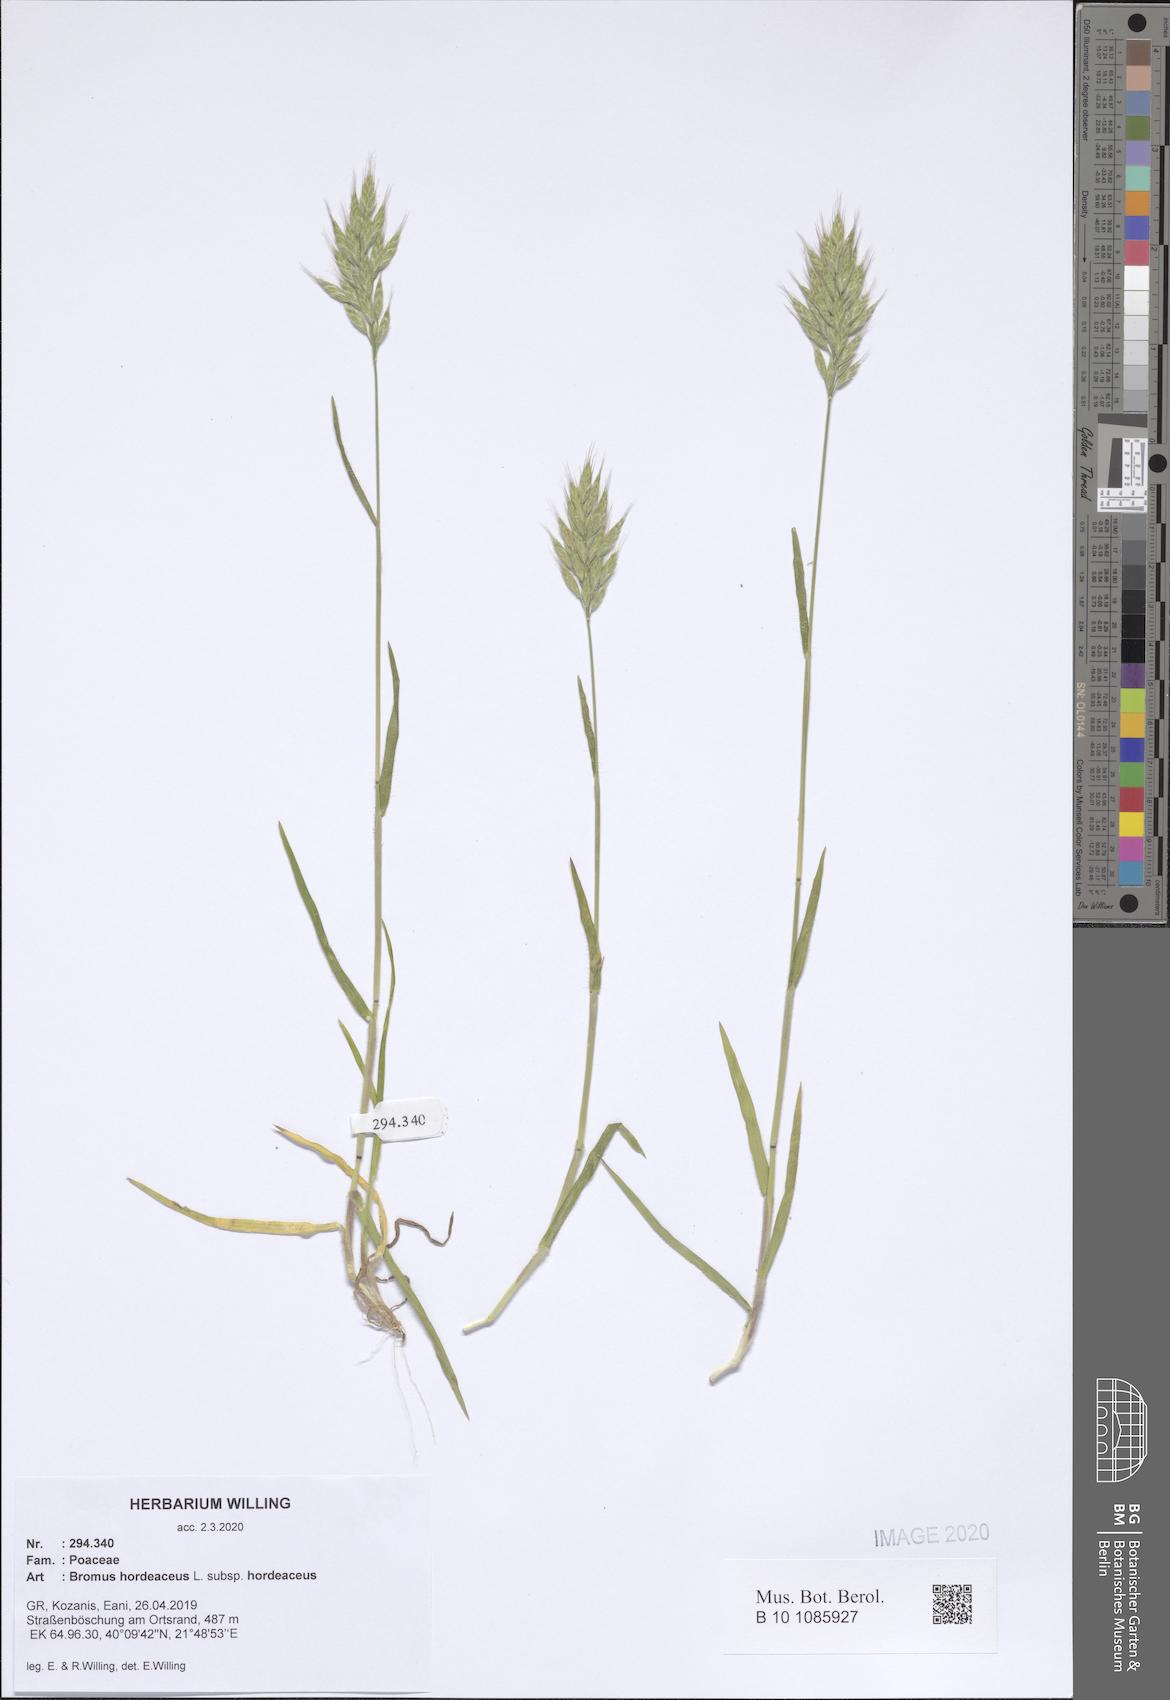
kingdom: Plantae
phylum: Tracheophyta
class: Liliopsida
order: Poales
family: Poaceae
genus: Bromus
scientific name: Bromus hordeaceus
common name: Soft brome
